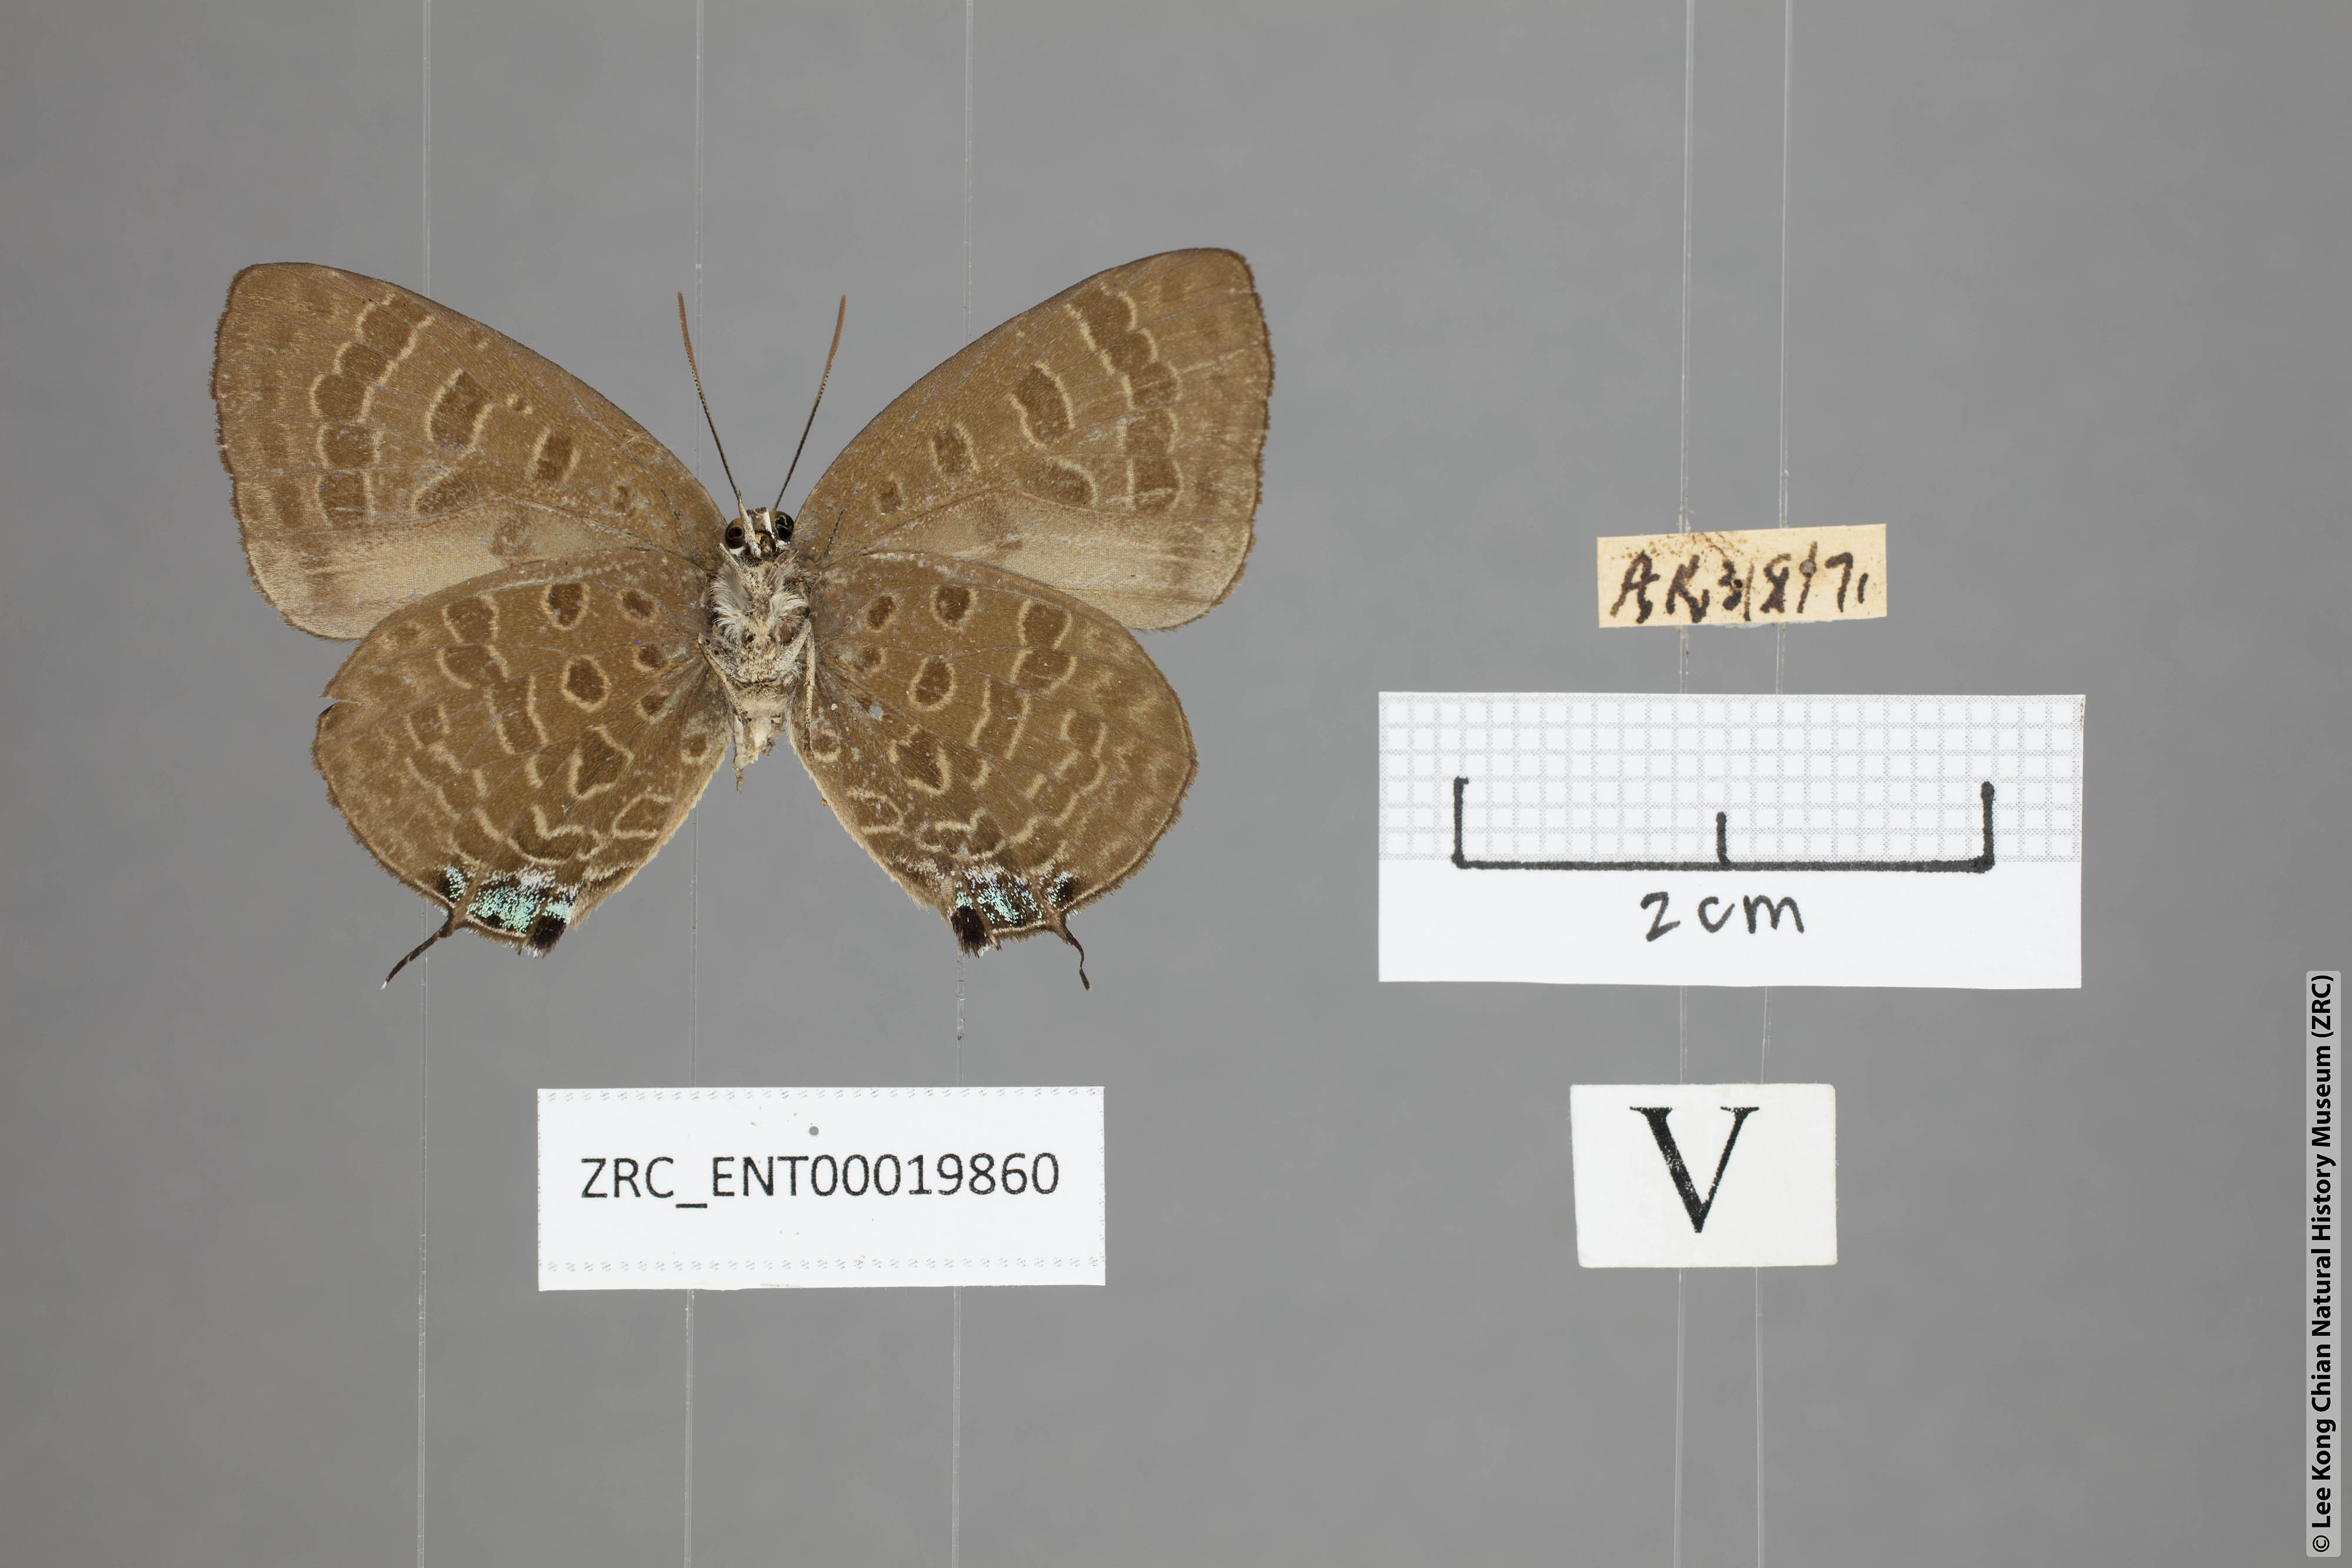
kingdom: Animalia
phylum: Arthropoda
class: Insecta
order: Lepidoptera
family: Lycaenidae
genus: Arhopala
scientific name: Arhopala sublustris
